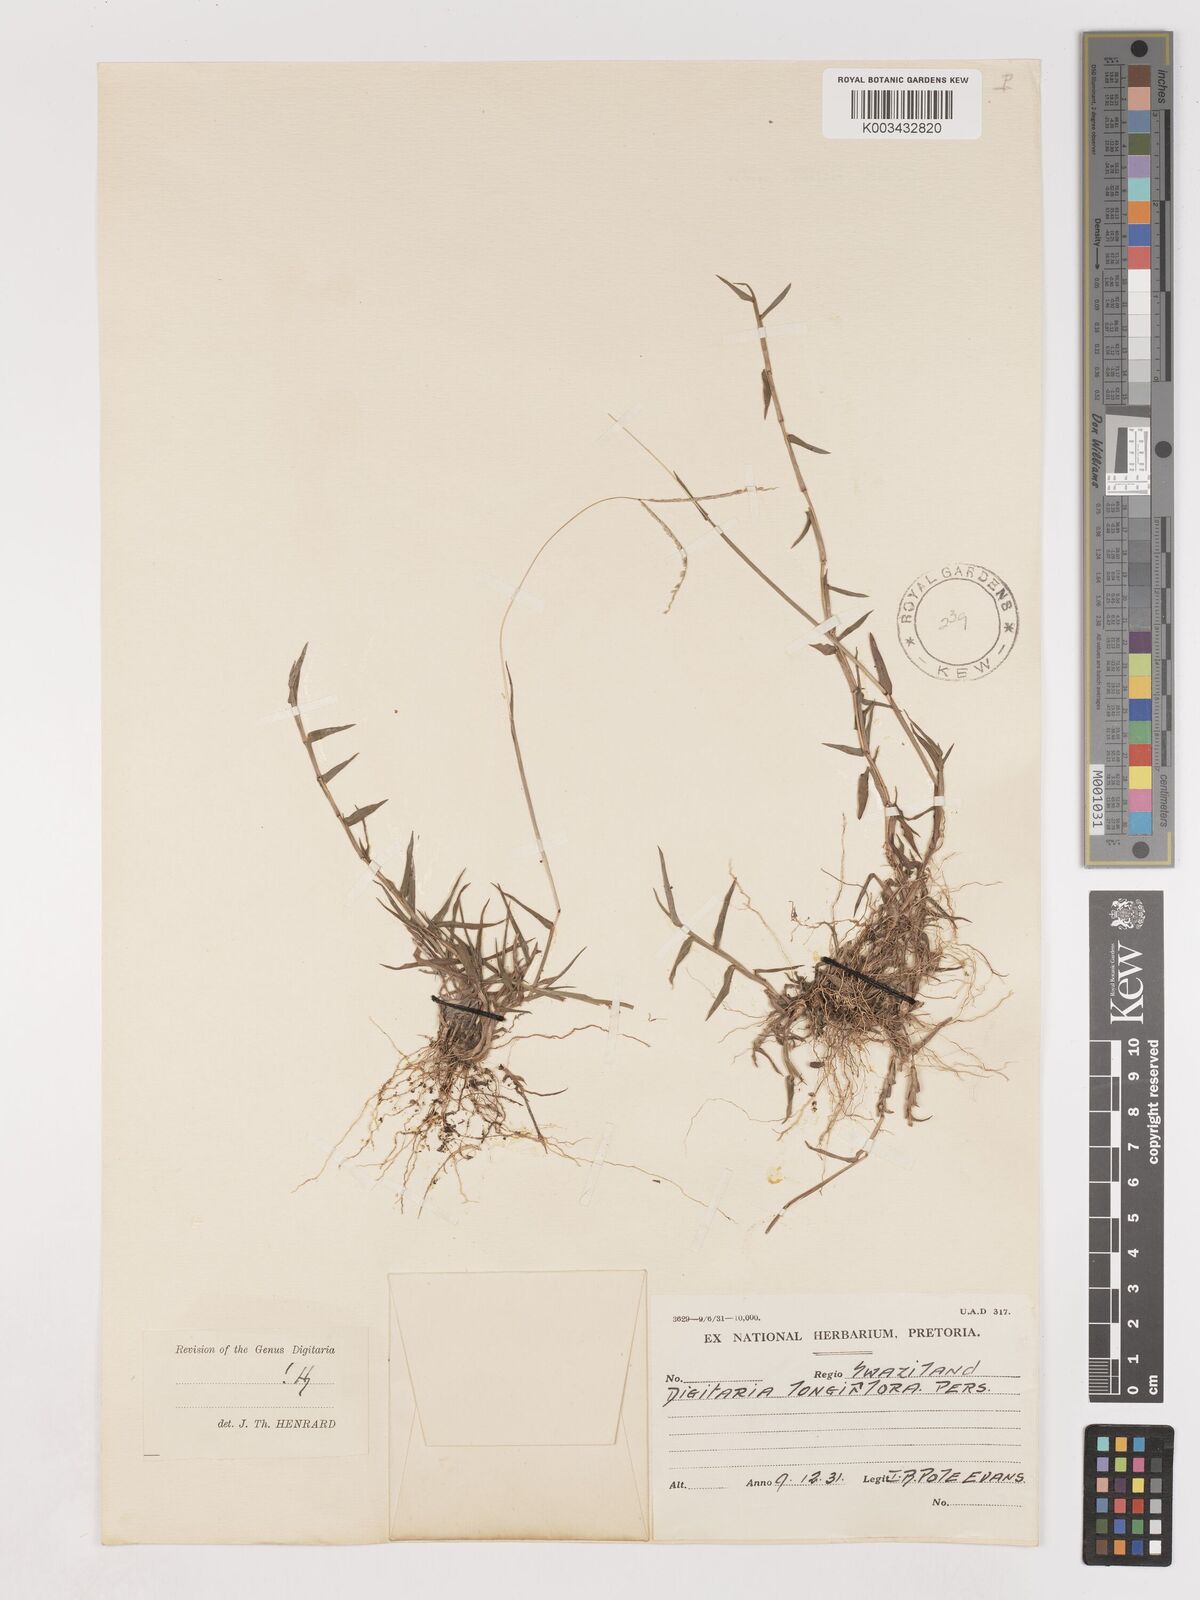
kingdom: Plantae
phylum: Tracheophyta
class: Liliopsida
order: Poales
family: Poaceae
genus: Digitaria
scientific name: Digitaria longiflora
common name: Wire crabgrass
